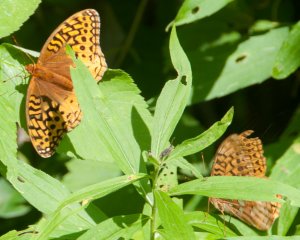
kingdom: Animalia
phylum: Arthropoda
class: Insecta
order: Lepidoptera
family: Nymphalidae
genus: Speyeria
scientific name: Speyeria cybele
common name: Great Spangled Fritillary
